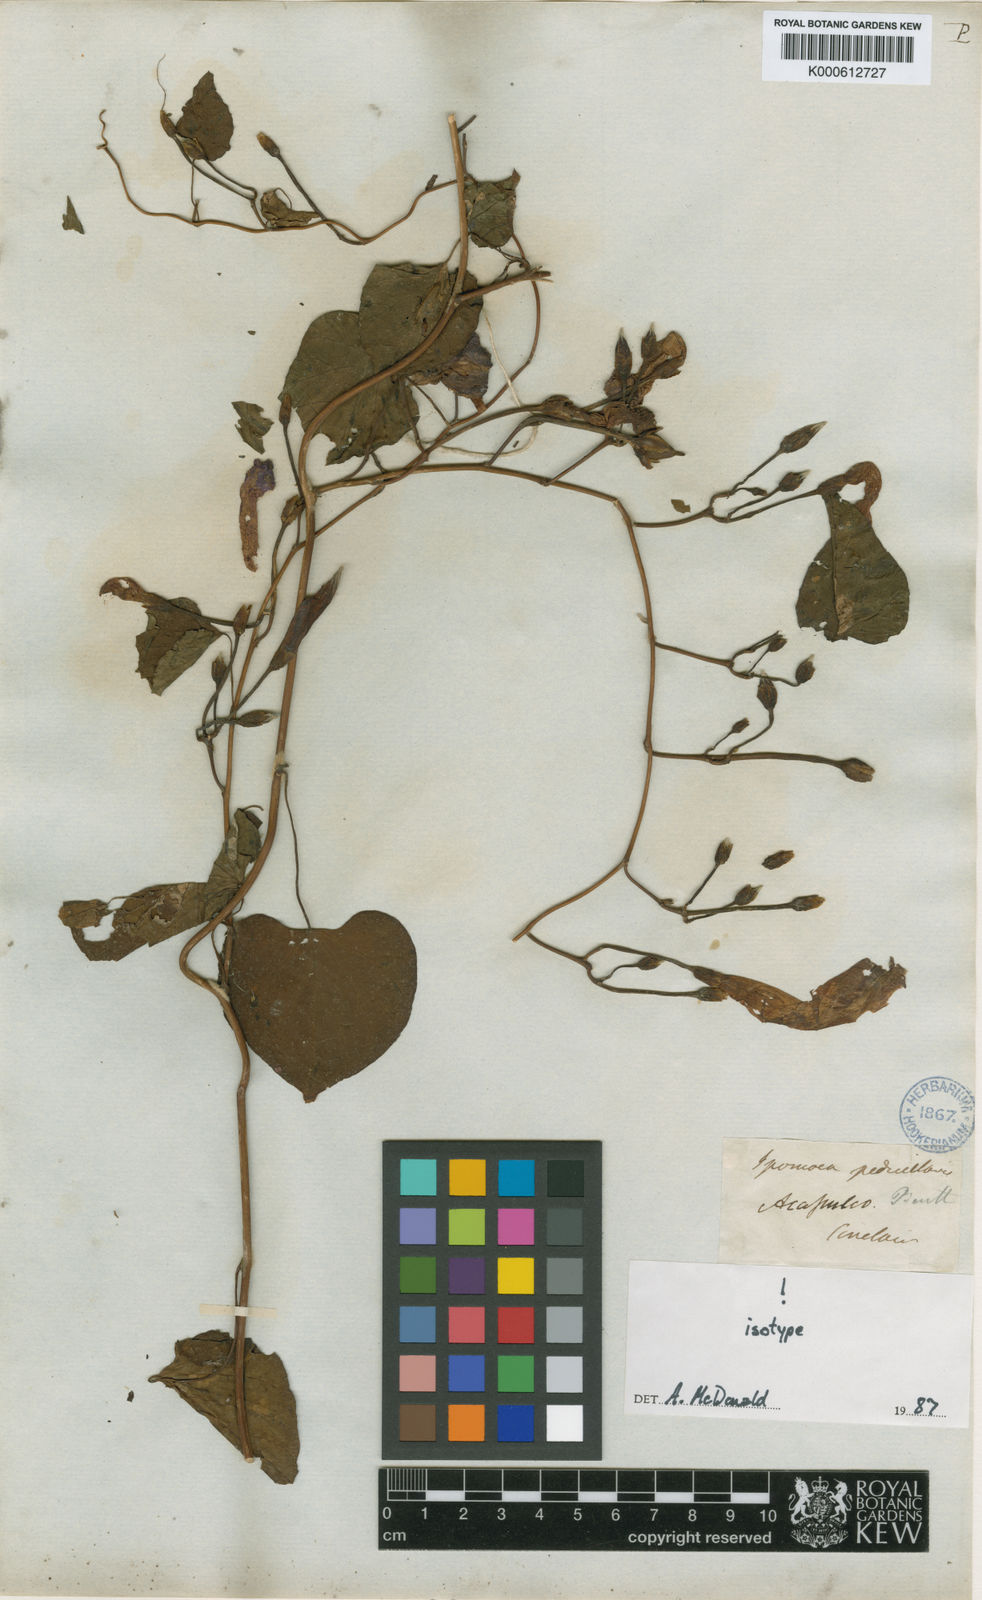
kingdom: Plantae
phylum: Tracheophyta
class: Magnoliopsida
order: Solanales
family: Convolvulaceae
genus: Ipomoea
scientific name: Ipomoea pedicellaris
